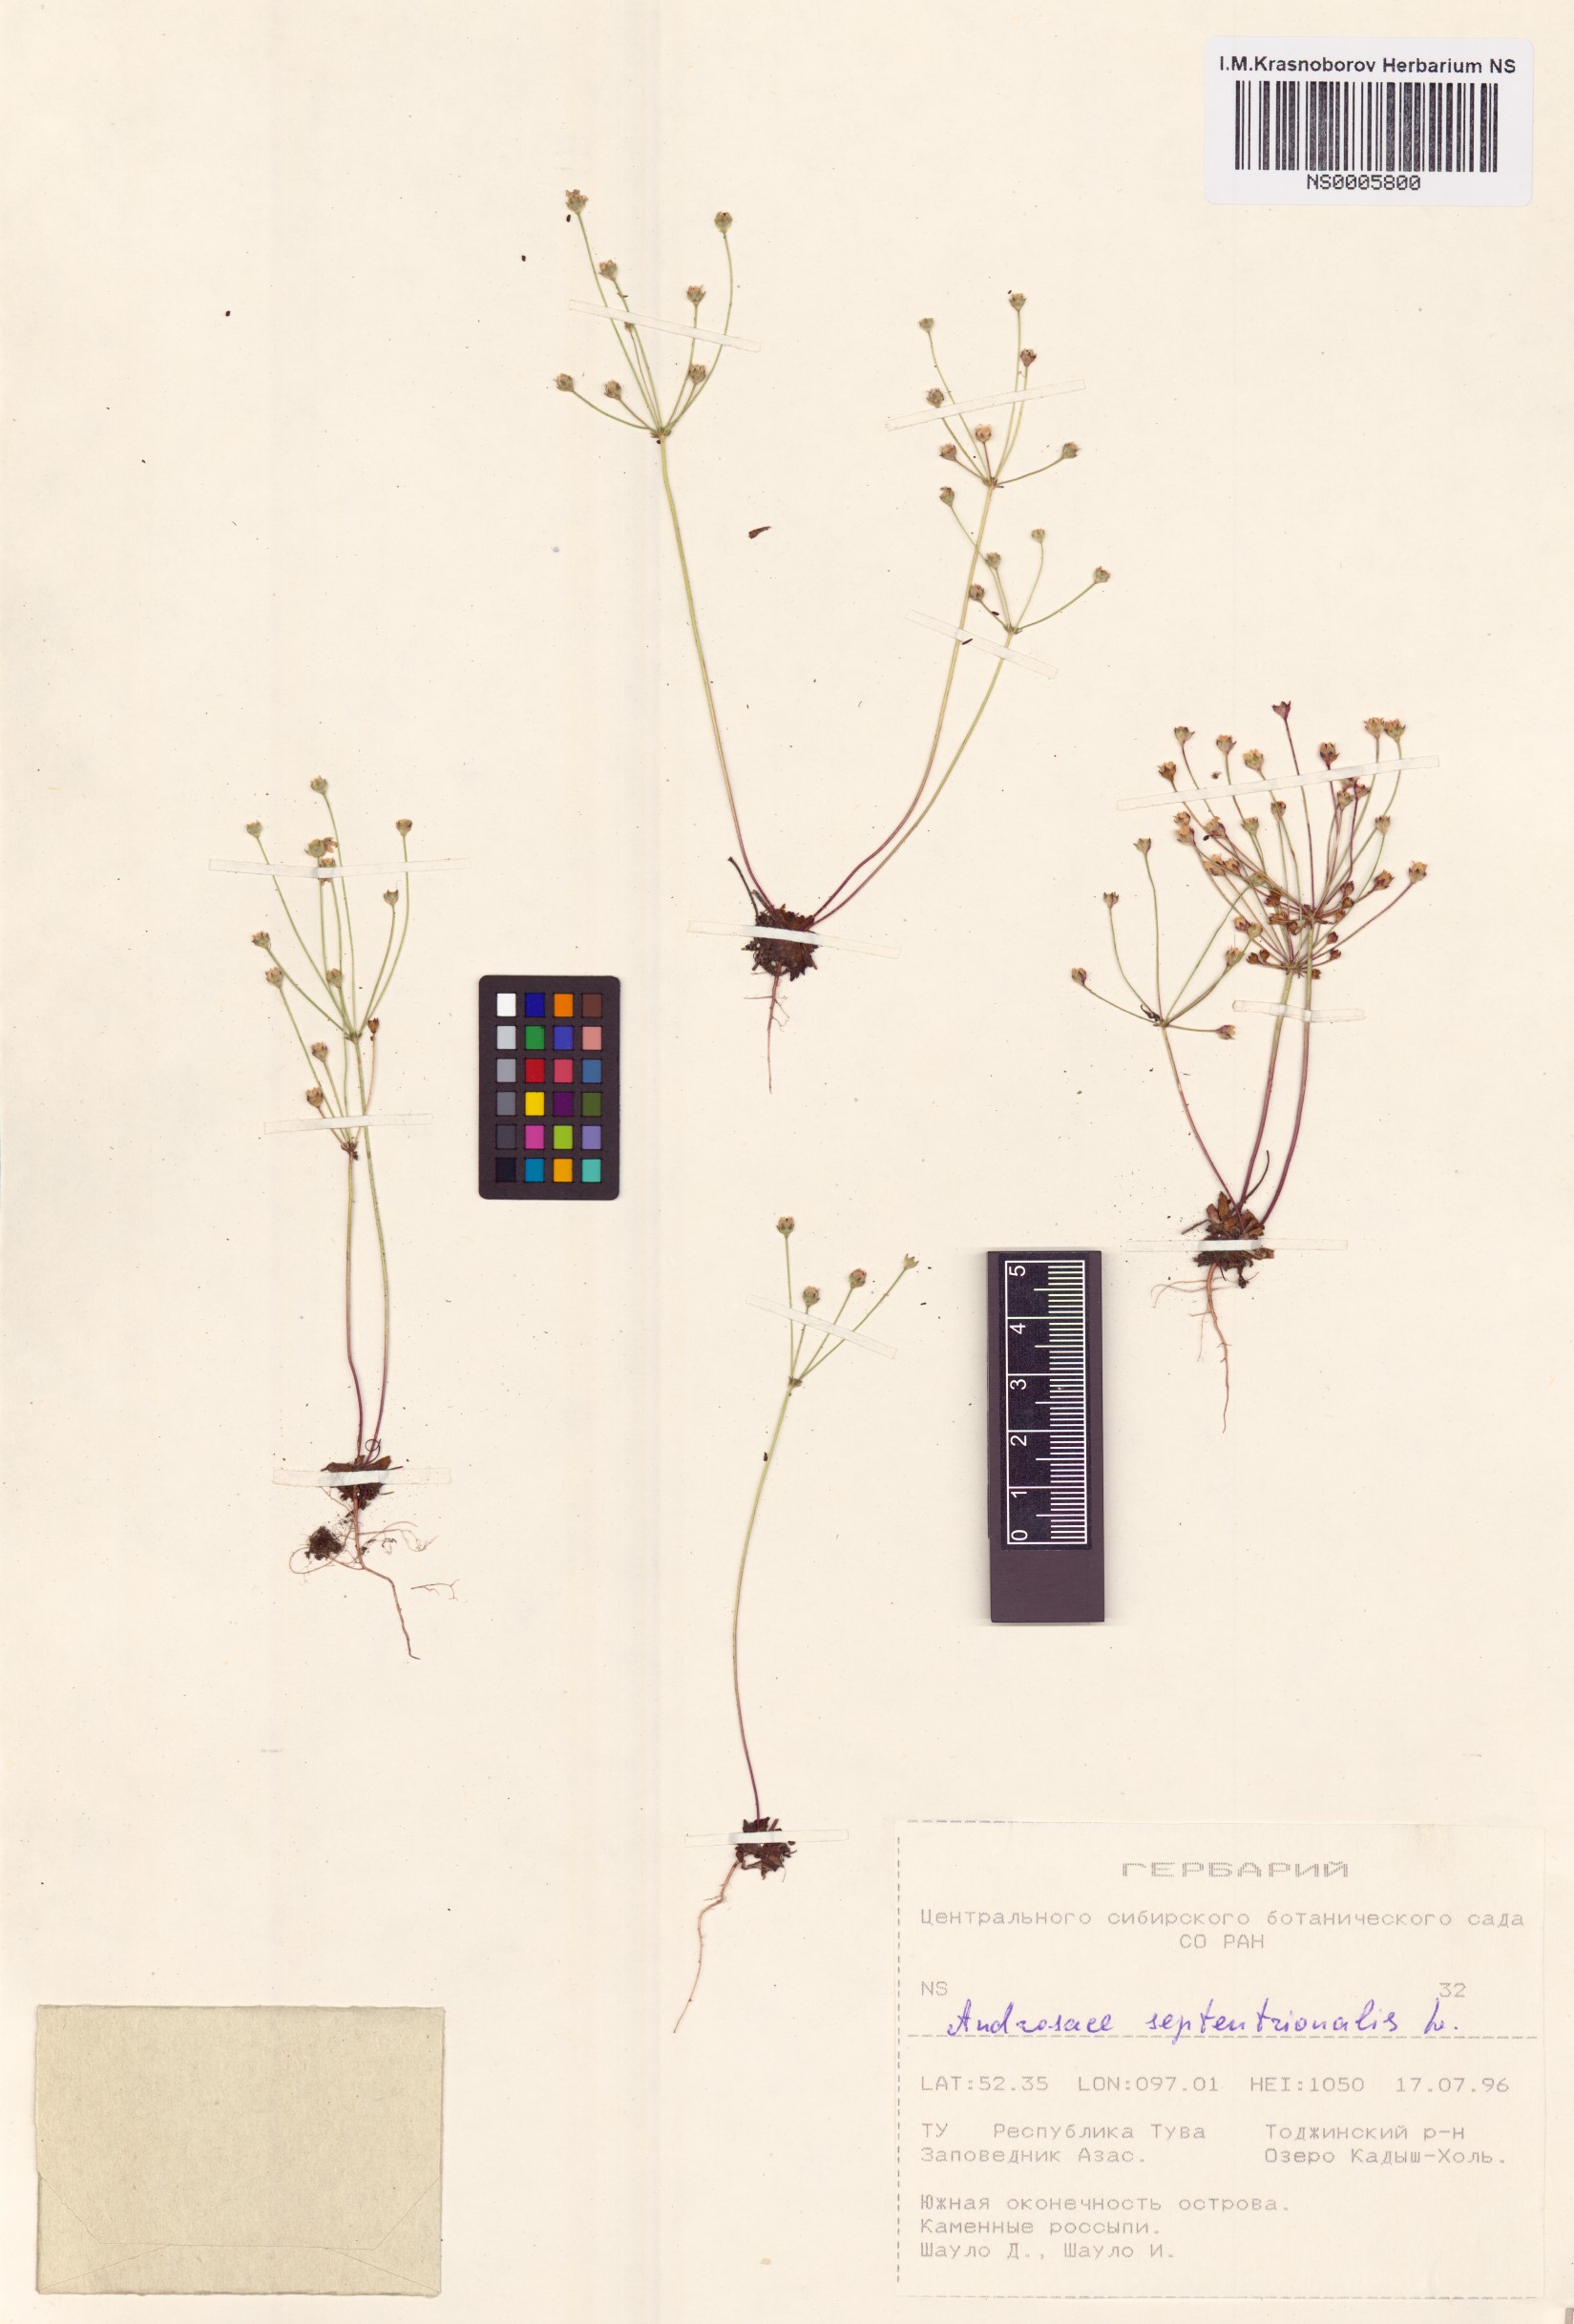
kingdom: Plantae
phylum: Tracheophyta
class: Magnoliopsida
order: Ericales
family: Primulaceae
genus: Androsace
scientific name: Androsace septentrionalis
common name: Hairy northern fairy-candelabra
